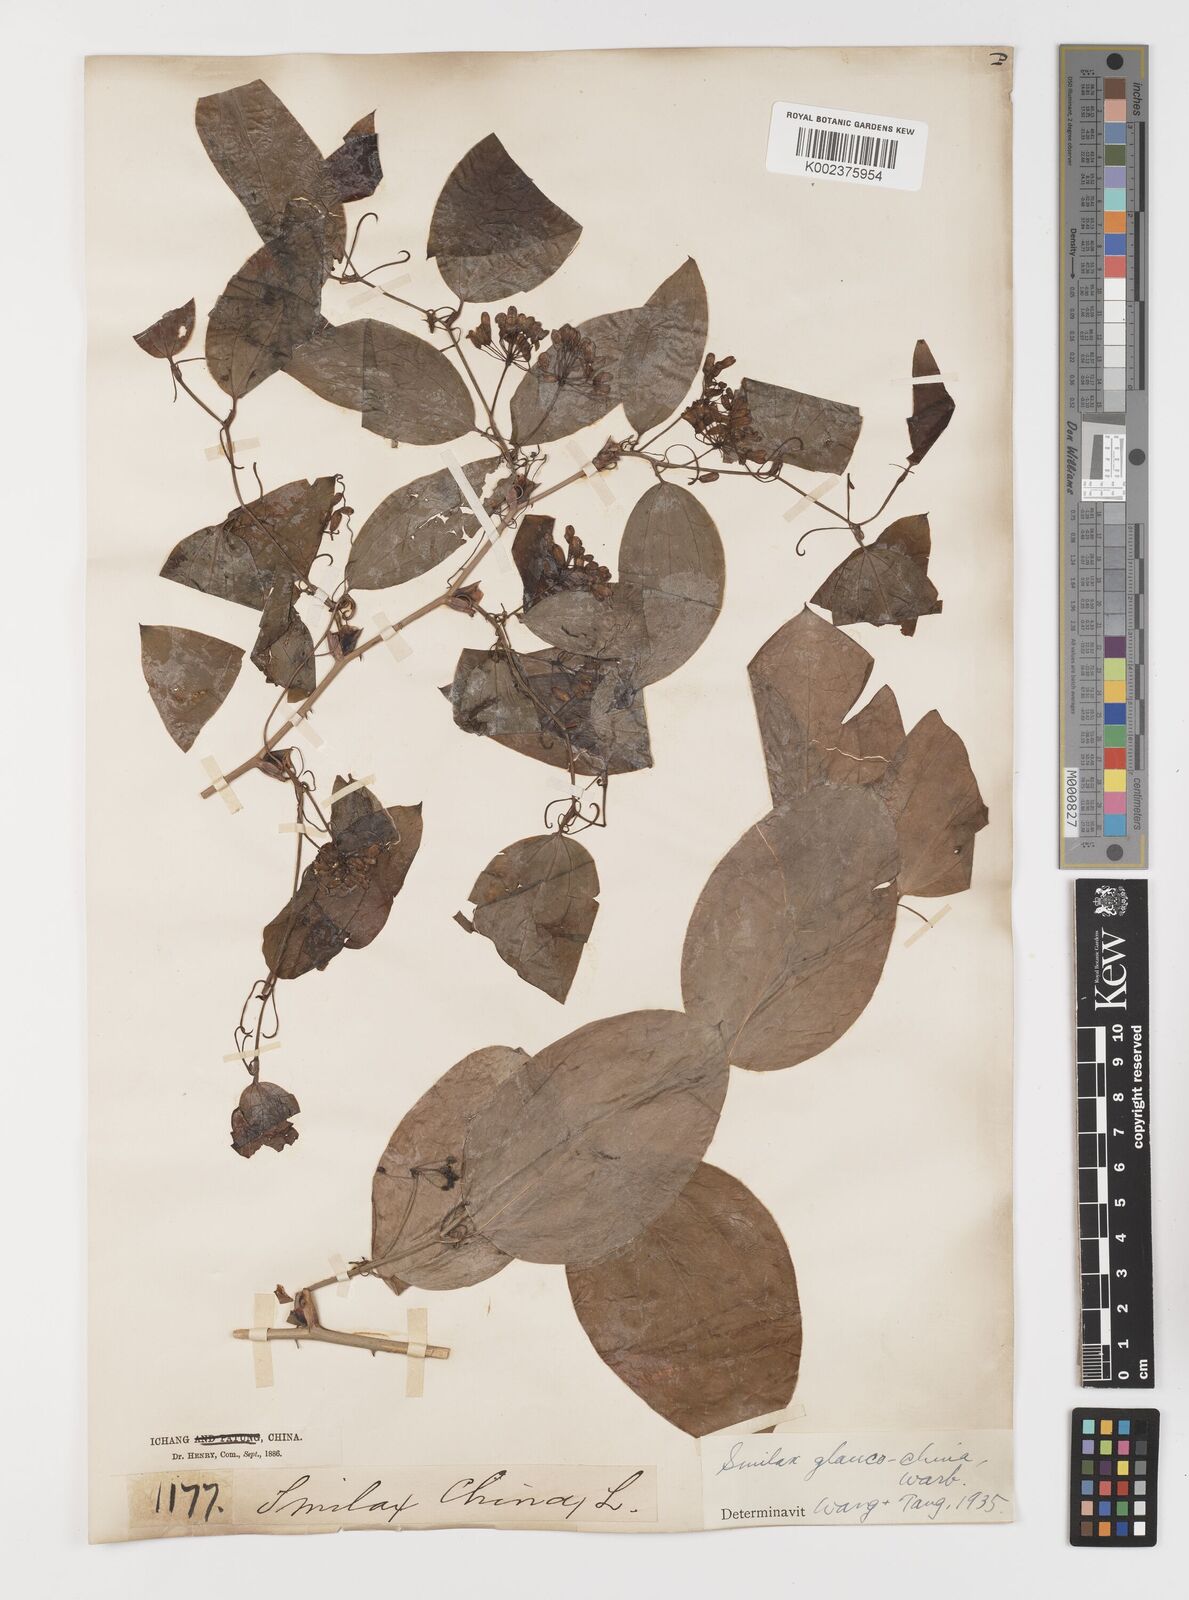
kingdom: Plantae
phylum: Tracheophyta
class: Liliopsida
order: Liliales
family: Smilacaceae
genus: Smilax
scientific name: Smilax glaucochina
